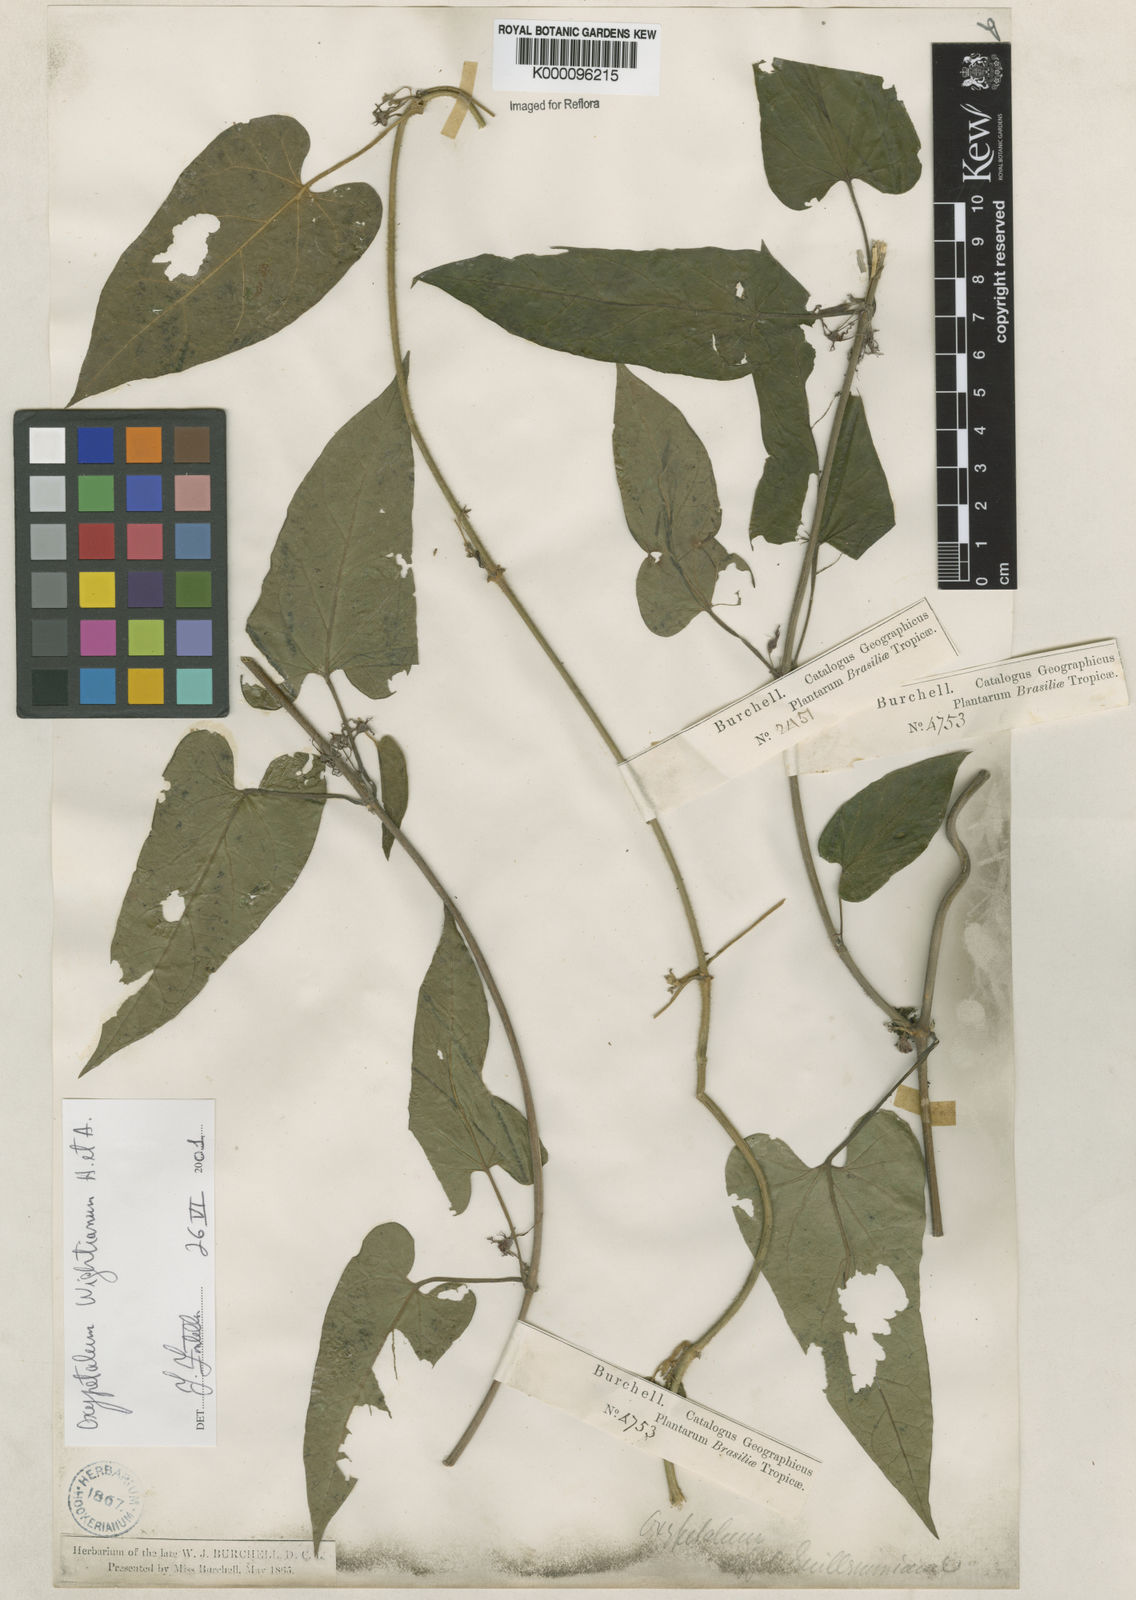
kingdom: Plantae
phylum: Tracheophyta
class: Magnoliopsida
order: Gentianales
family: Apocynaceae
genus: Oxypetalum
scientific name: Oxypetalum wightianum
